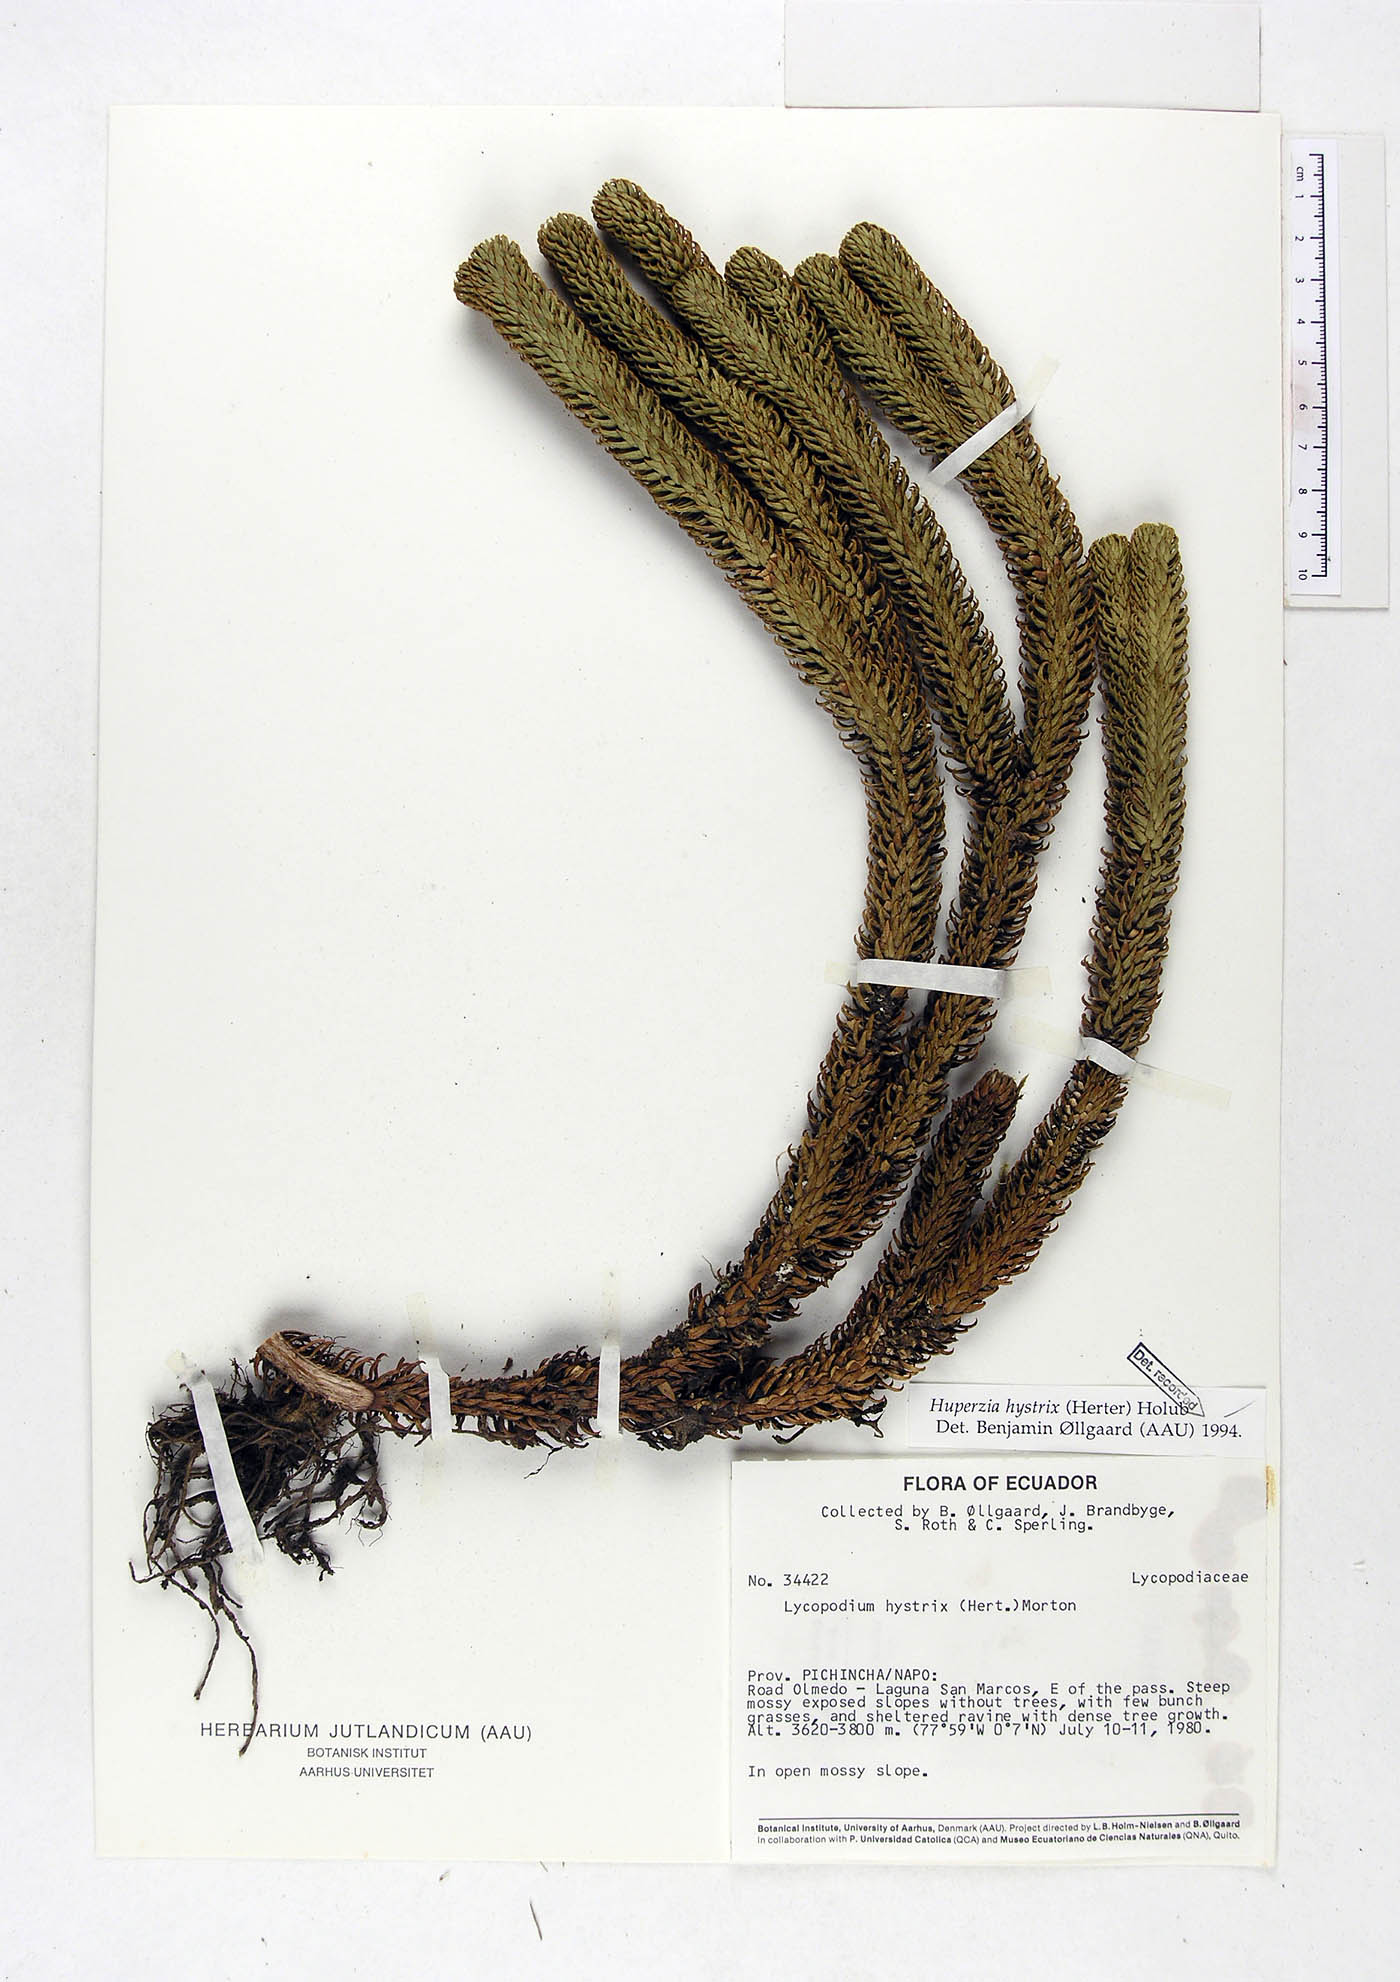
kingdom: Plantae
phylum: Tracheophyta
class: Lycopodiopsida
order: Lycopodiales
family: Lycopodiaceae
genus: Phlegmariurus
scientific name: Phlegmariurus hystrix
